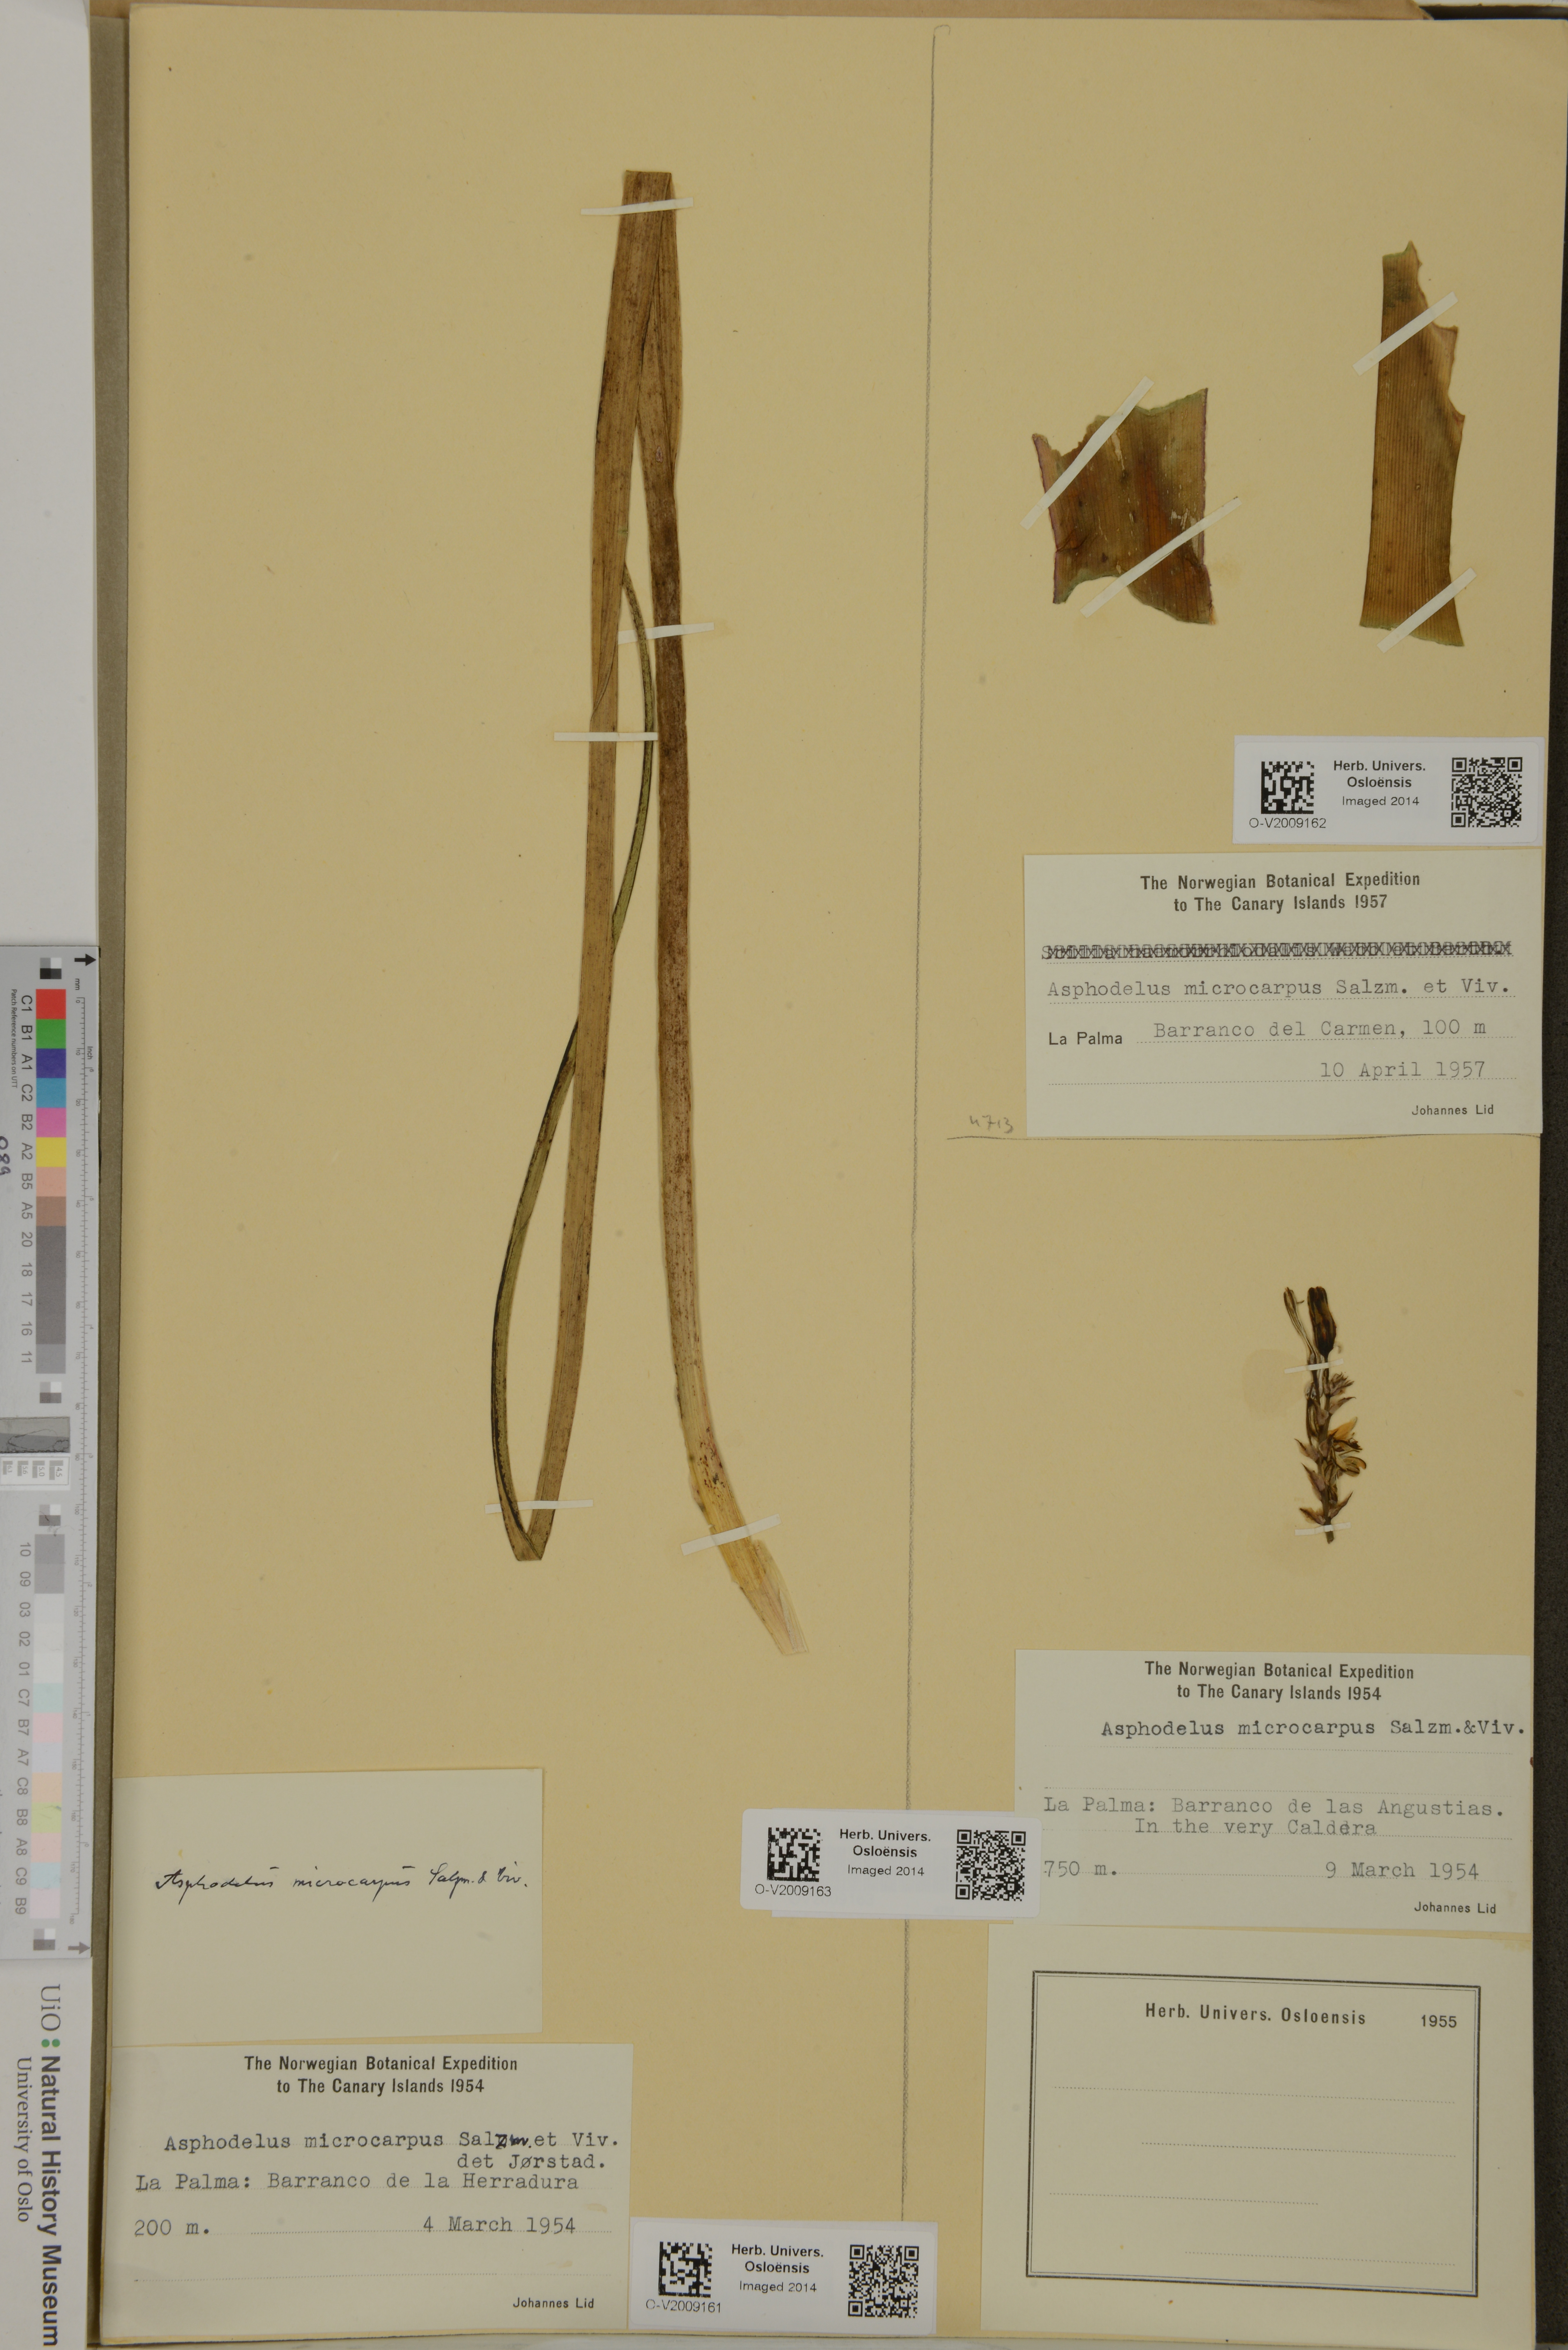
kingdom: Plantae
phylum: Tracheophyta
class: Liliopsida
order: Asparagales
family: Asphodelaceae
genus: Asphodelus
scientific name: Asphodelus ramosus
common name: Silverrod
